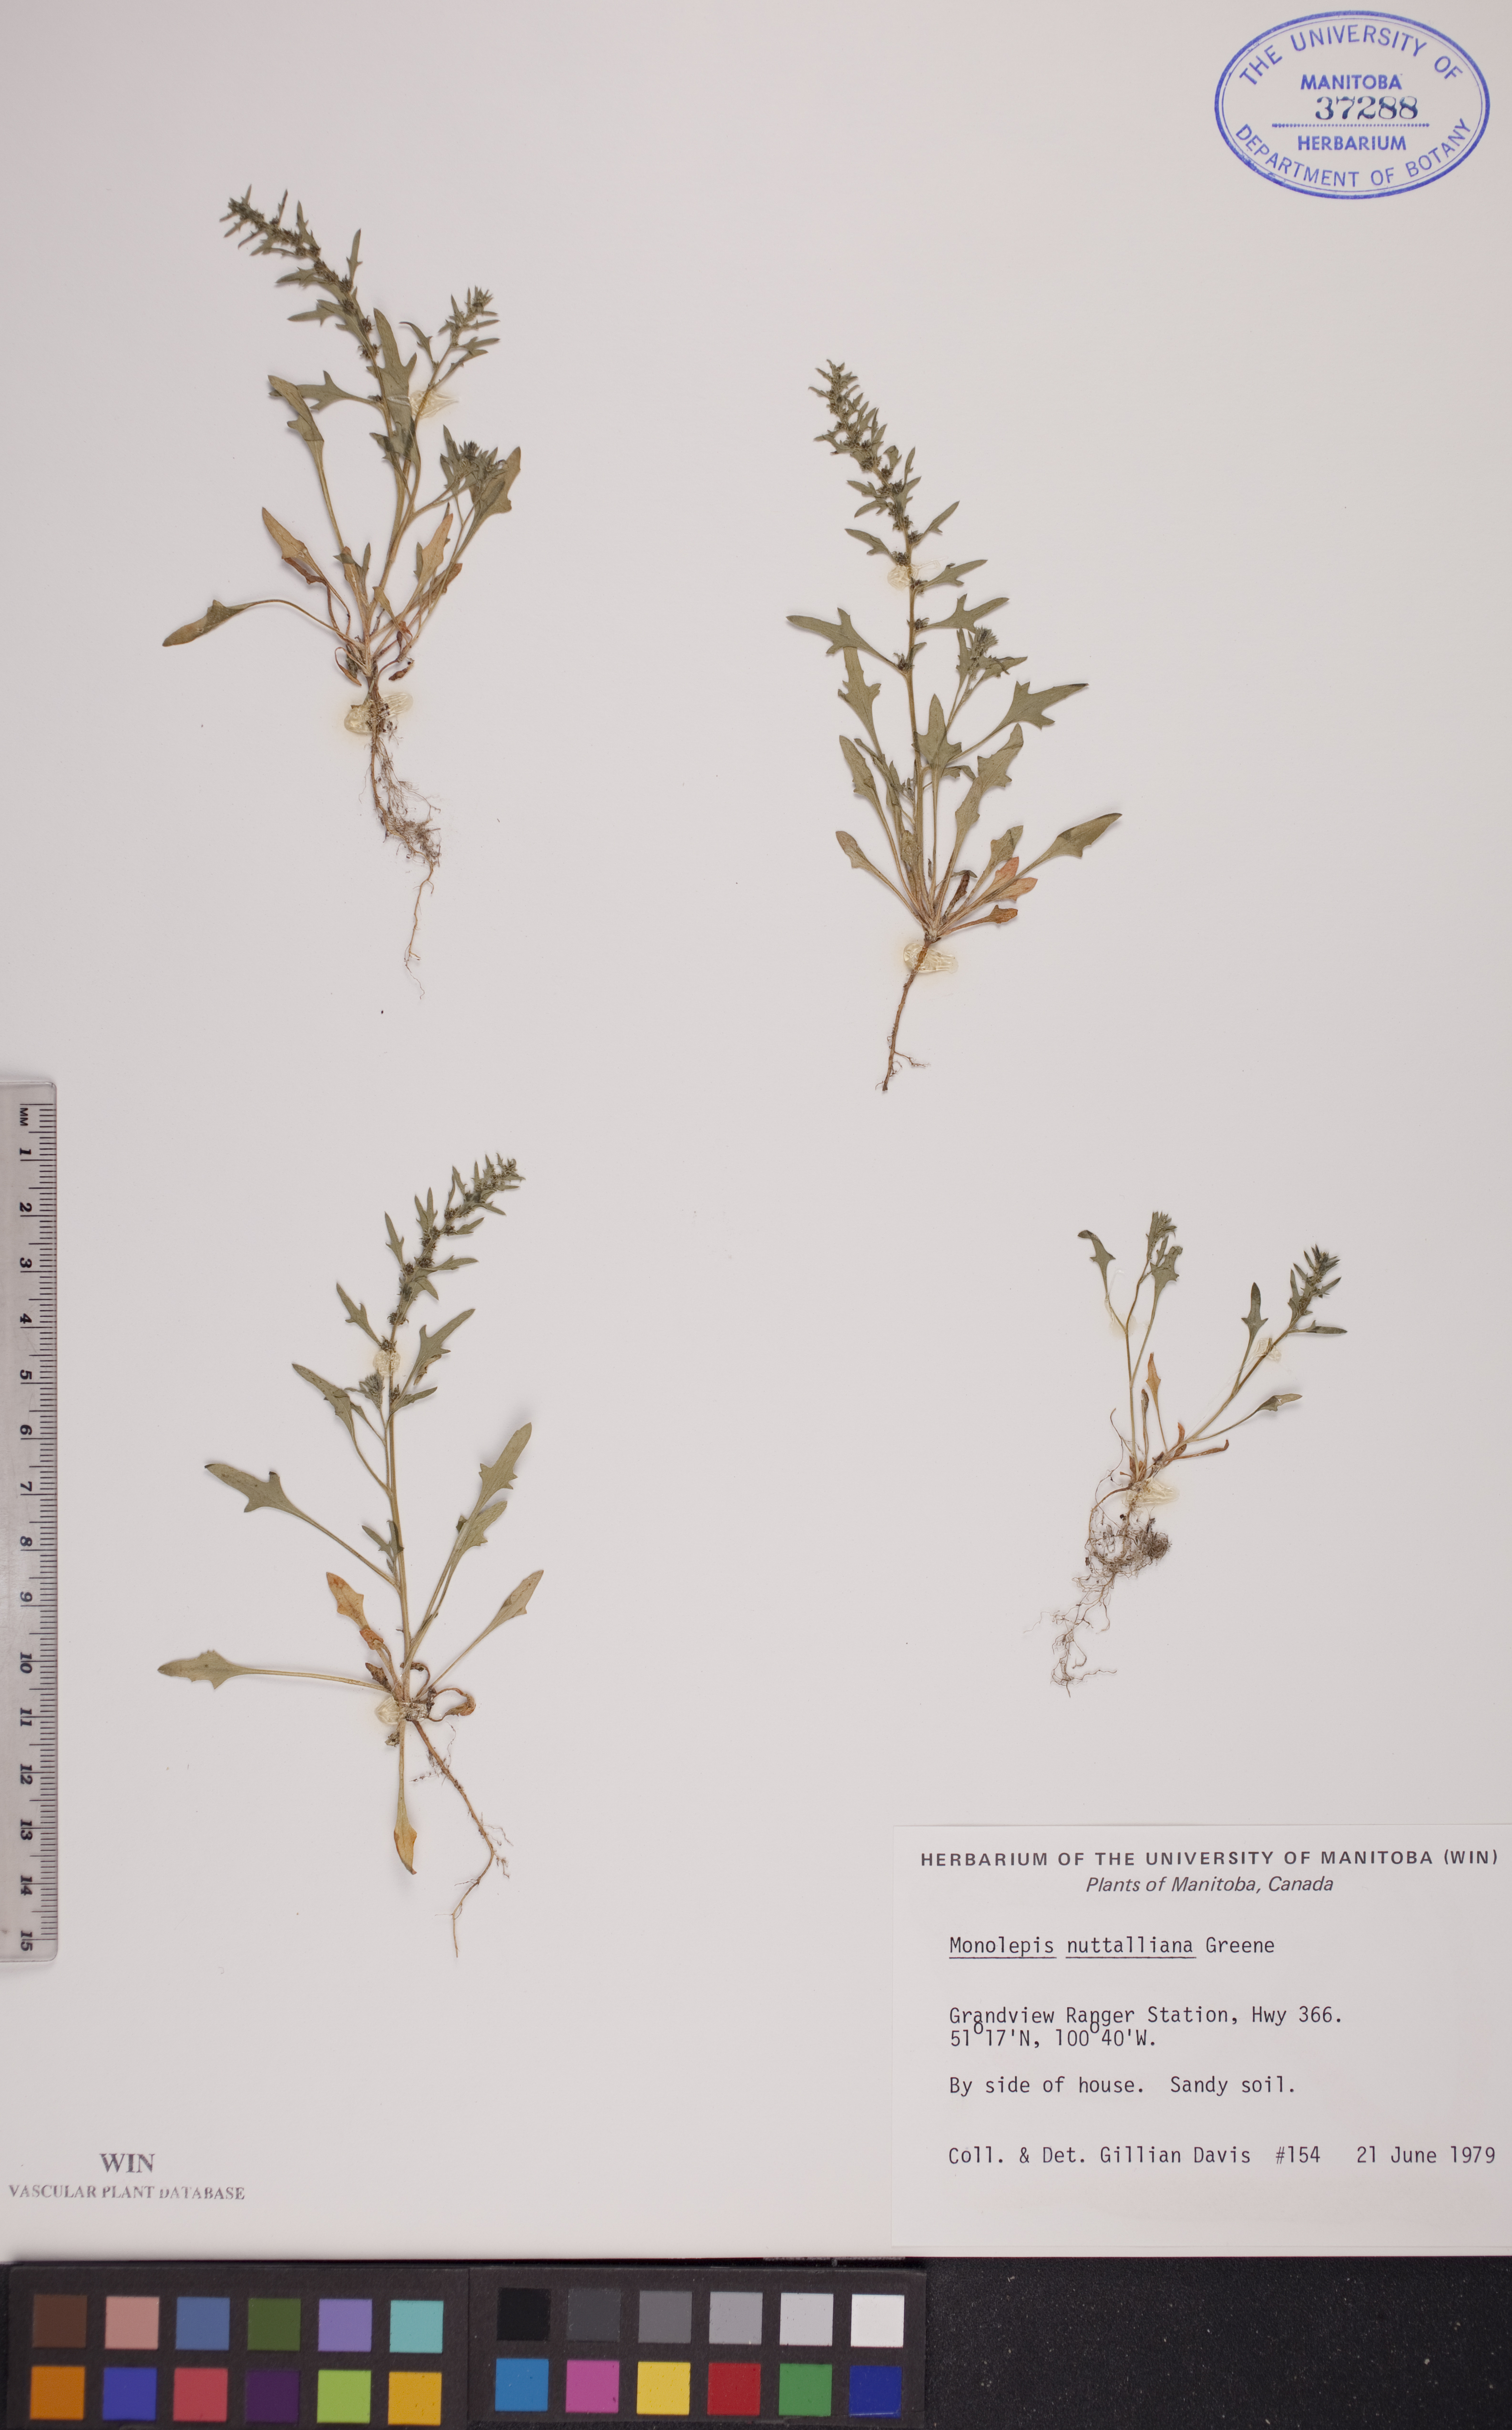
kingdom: Plantae
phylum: Tracheophyta
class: Magnoliopsida
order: Caryophyllales
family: Amaranthaceae
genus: Blitum
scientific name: Blitum nuttallianum
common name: Poverty-weed
